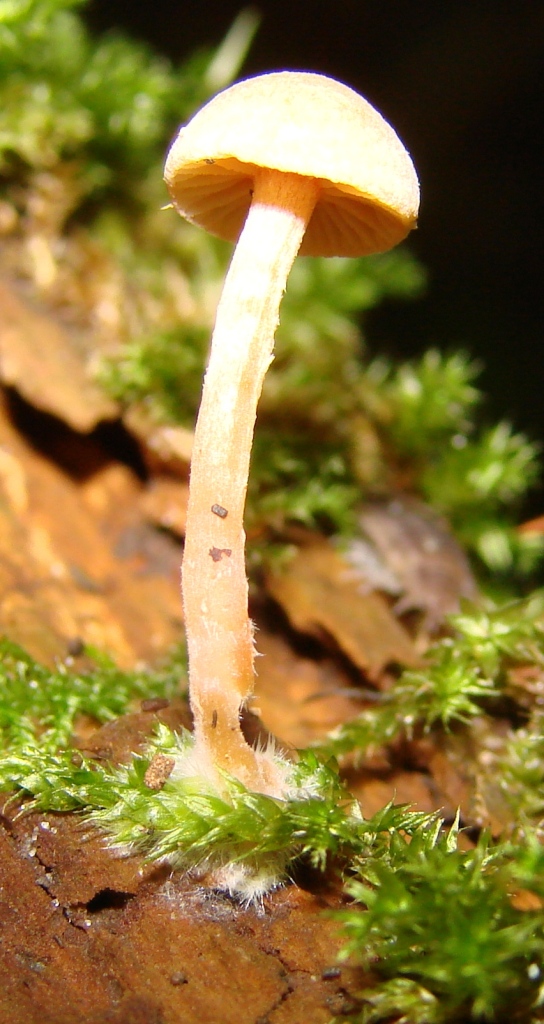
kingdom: Fungi
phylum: Basidiomycota
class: Agaricomycetes
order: Agaricales
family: Tubariaceae
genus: Tubaria
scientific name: Tubaria conspersa
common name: bleg fnughat
